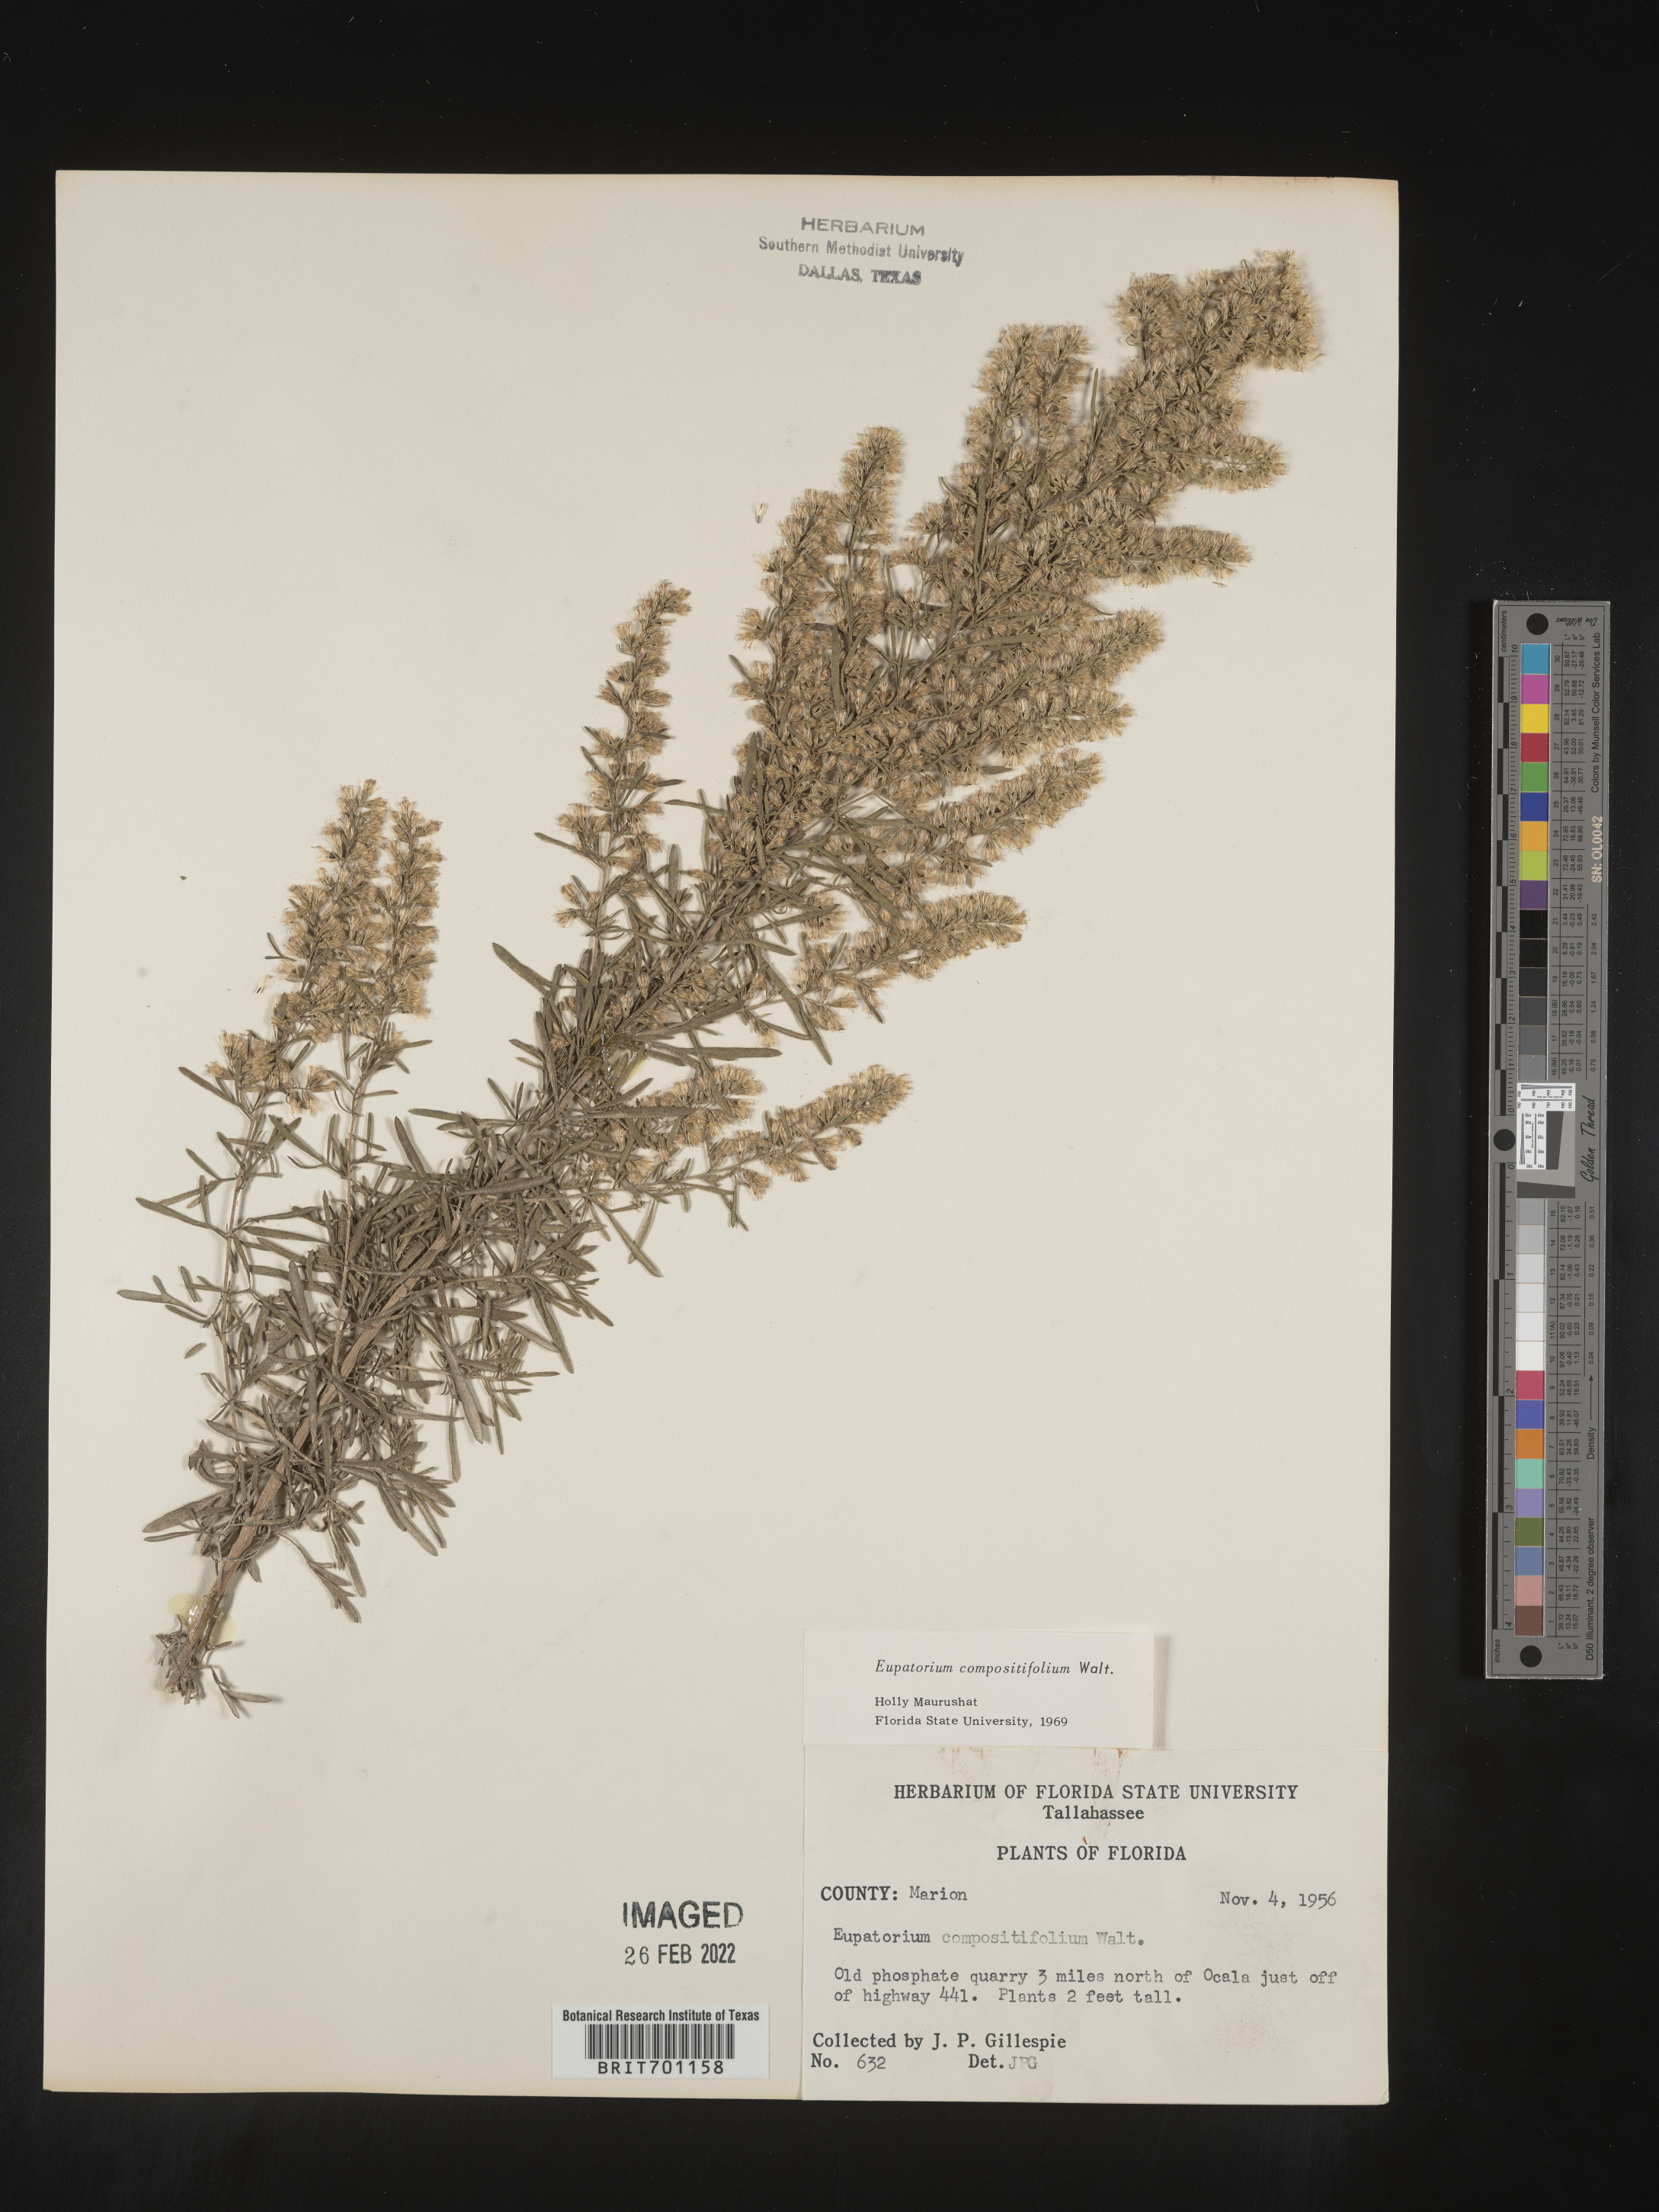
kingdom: Plantae
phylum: Tracheophyta
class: Magnoliopsida
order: Asterales
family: Asteraceae
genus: Eupatorium
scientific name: Eupatorium compositifolium
